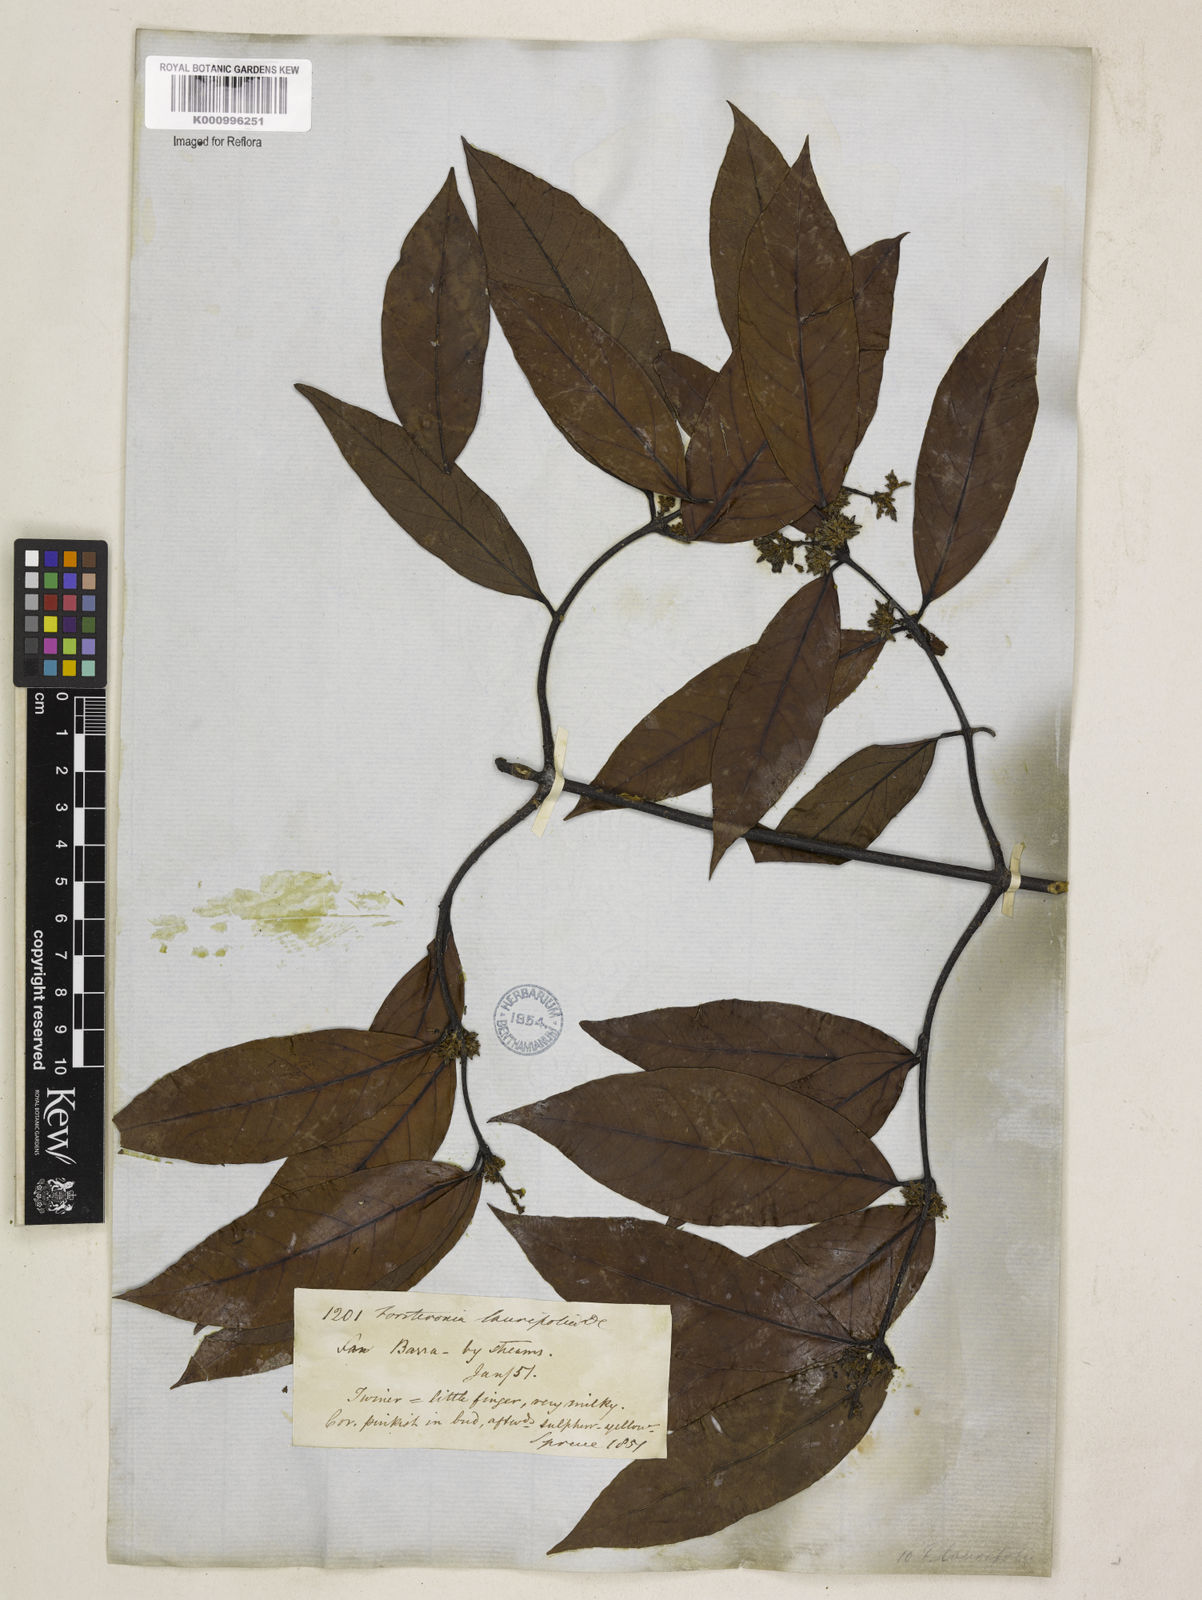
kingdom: Plantae
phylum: Tracheophyta
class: Magnoliopsida
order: Gentianales
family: Apocynaceae
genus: Forsteronia
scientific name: Forsteronia laurifolia
